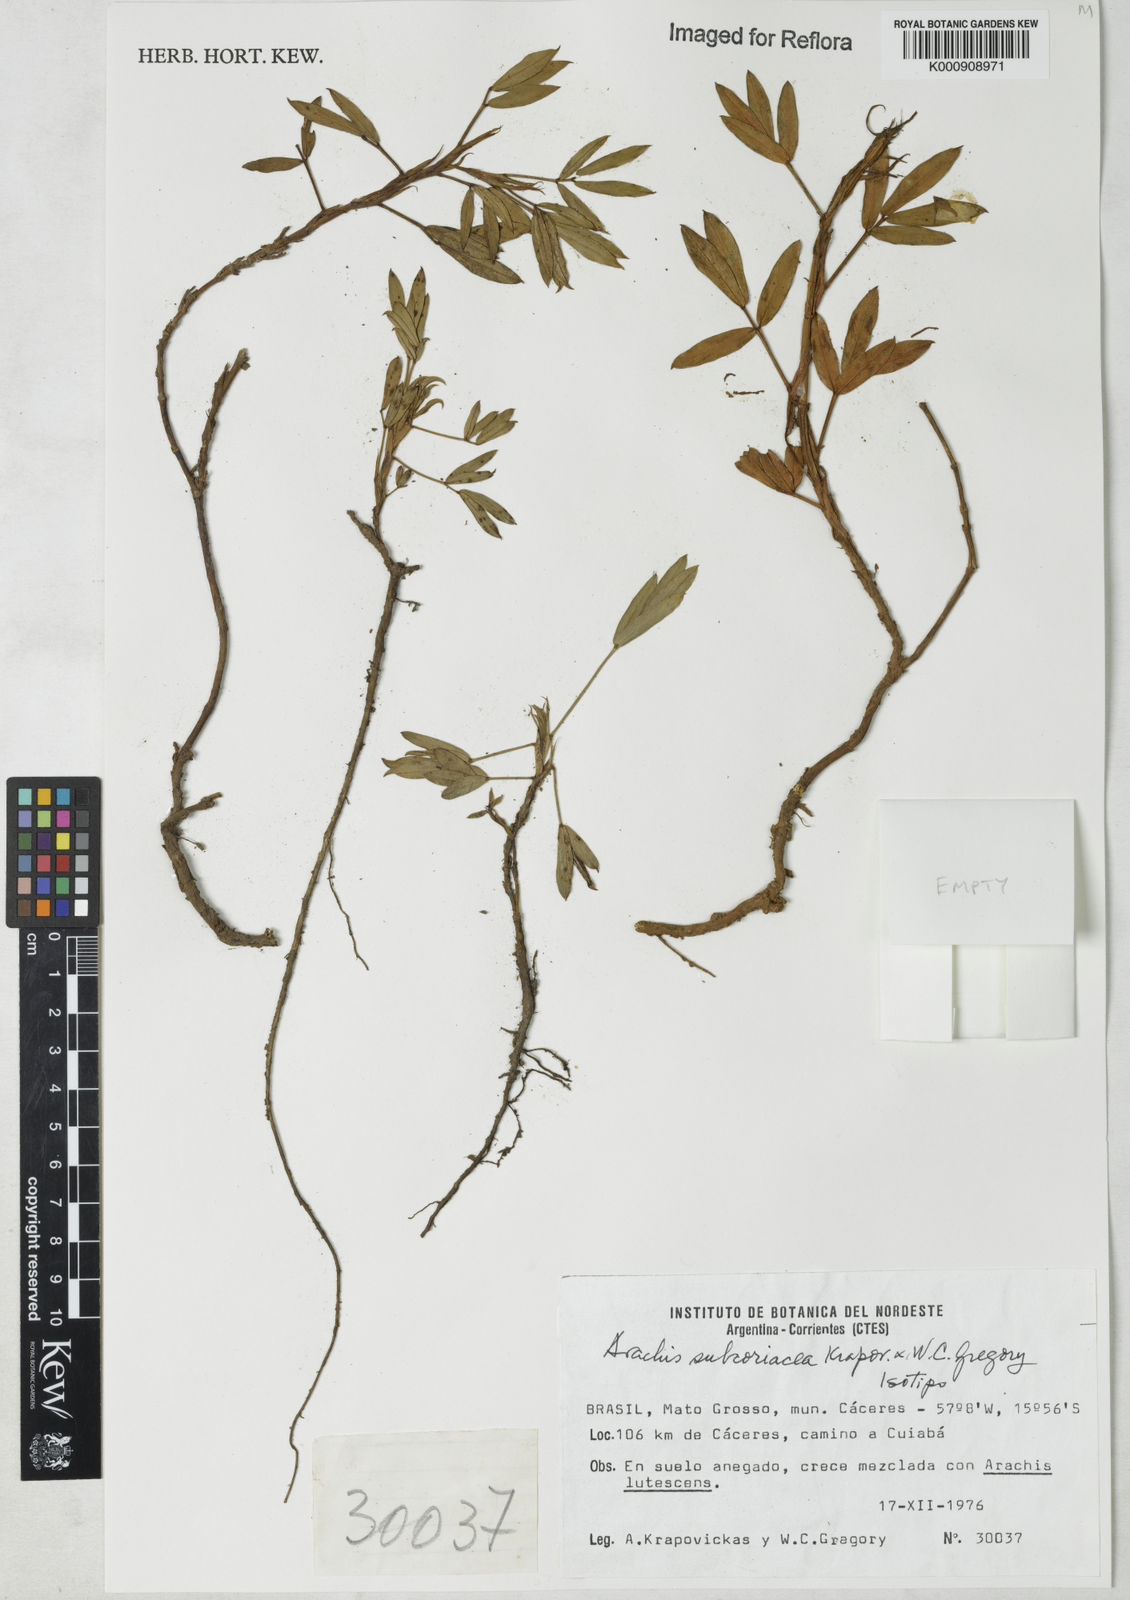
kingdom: Plantae
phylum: Tracheophyta
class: Magnoliopsida
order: Fabales
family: Fabaceae
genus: Arachis
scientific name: Arachis subcoriacea
